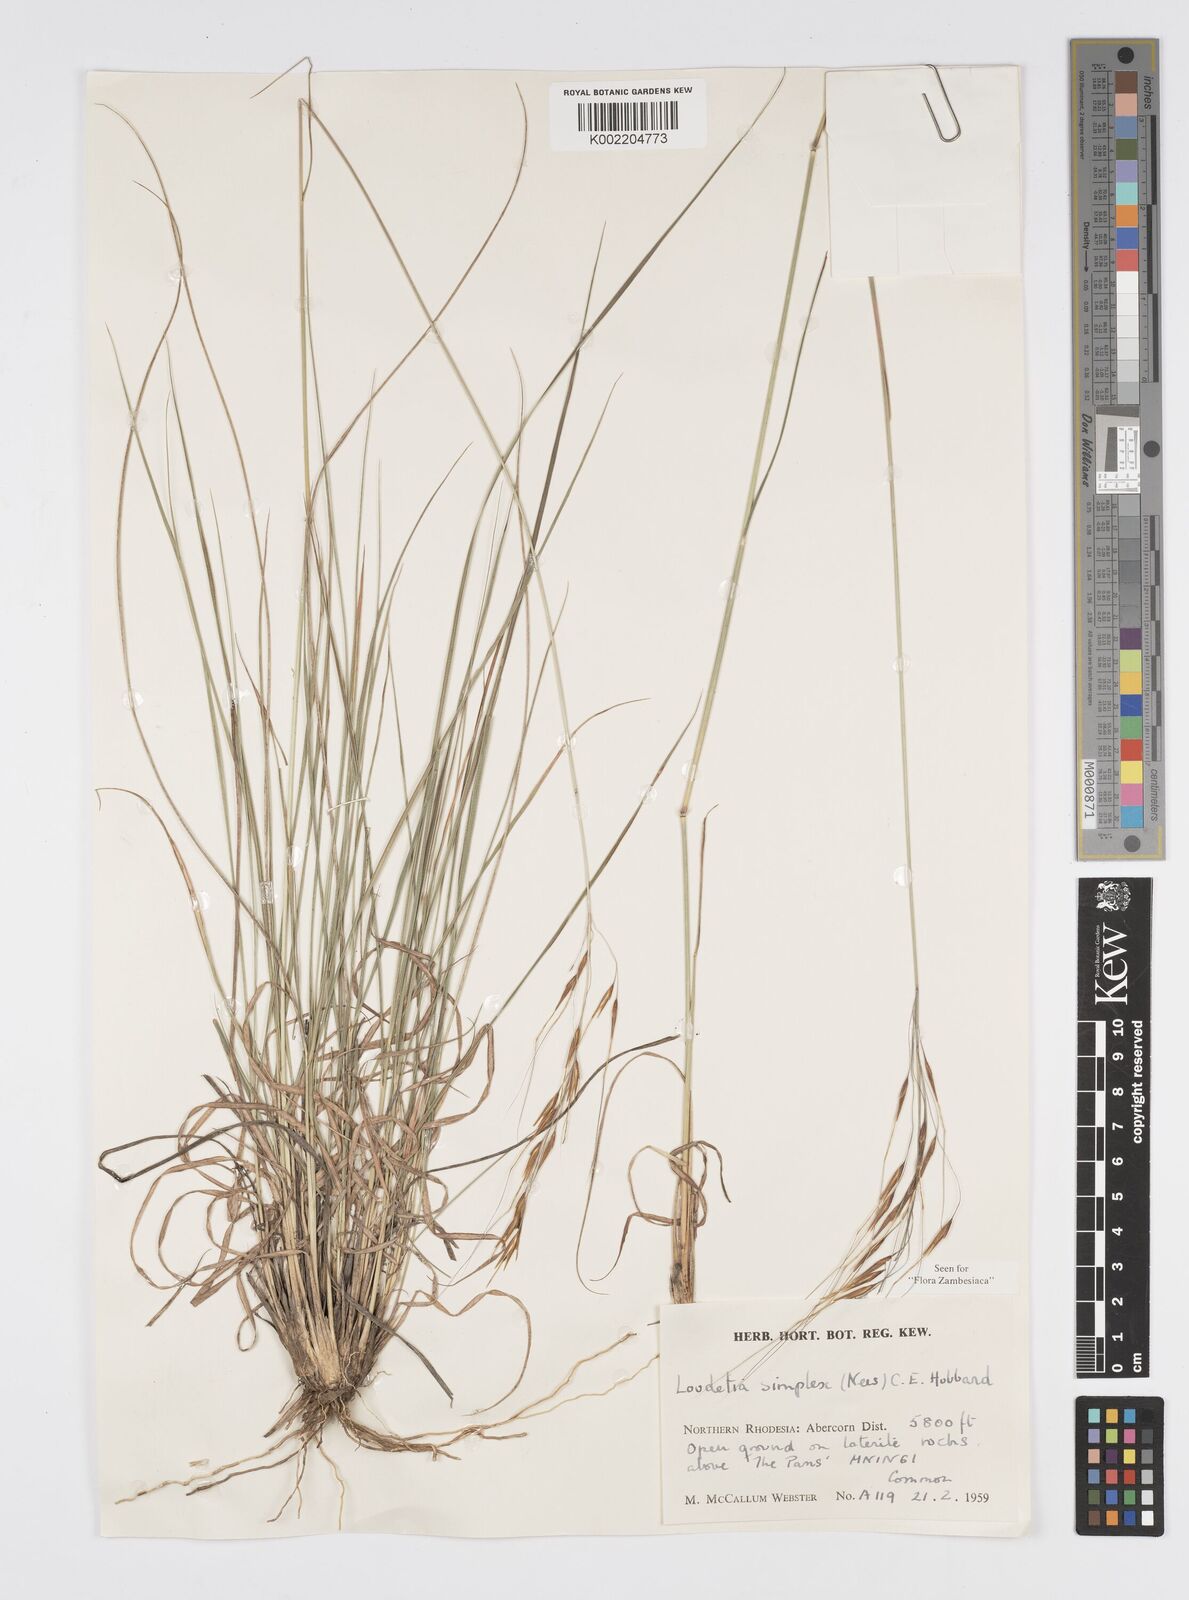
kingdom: Plantae
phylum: Tracheophyta
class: Liliopsida
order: Poales
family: Poaceae
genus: Loudetia
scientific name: Loudetia simplex
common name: Common russet grass
